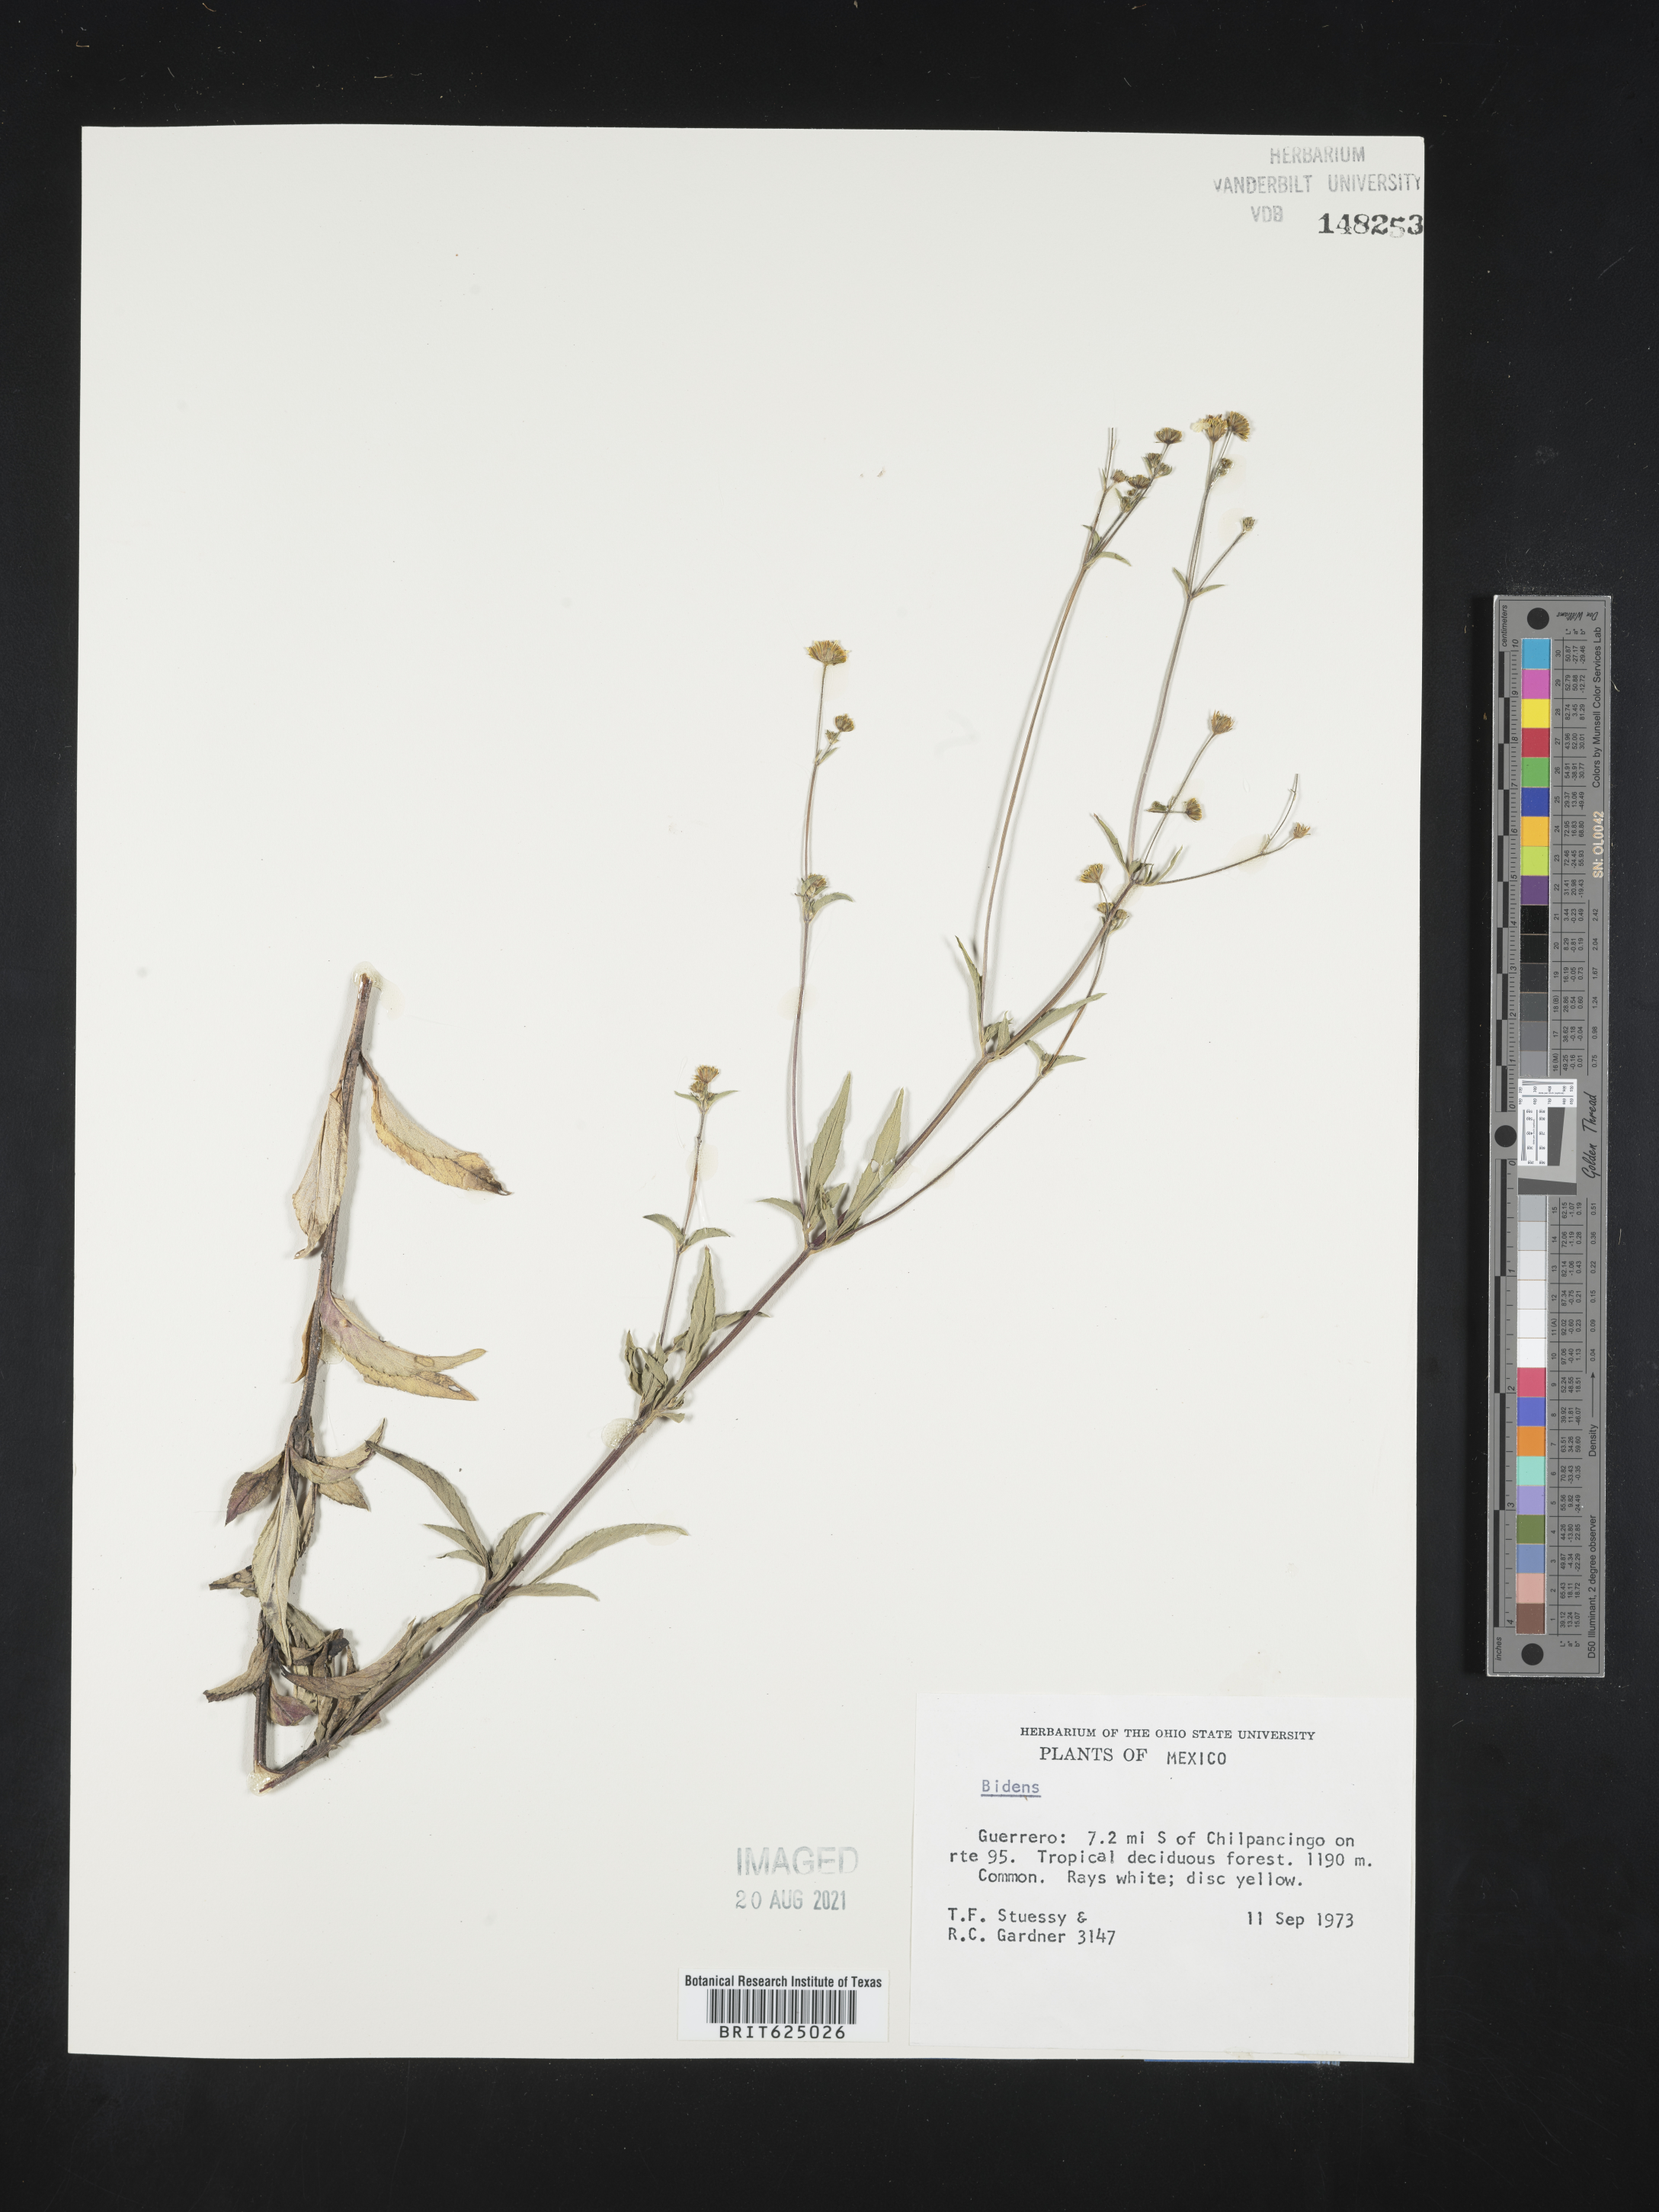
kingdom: Plantae
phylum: Tracheophyta
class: Magnoliopsida
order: Asterales
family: Asteraceae
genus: Bidens
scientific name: Bidens
